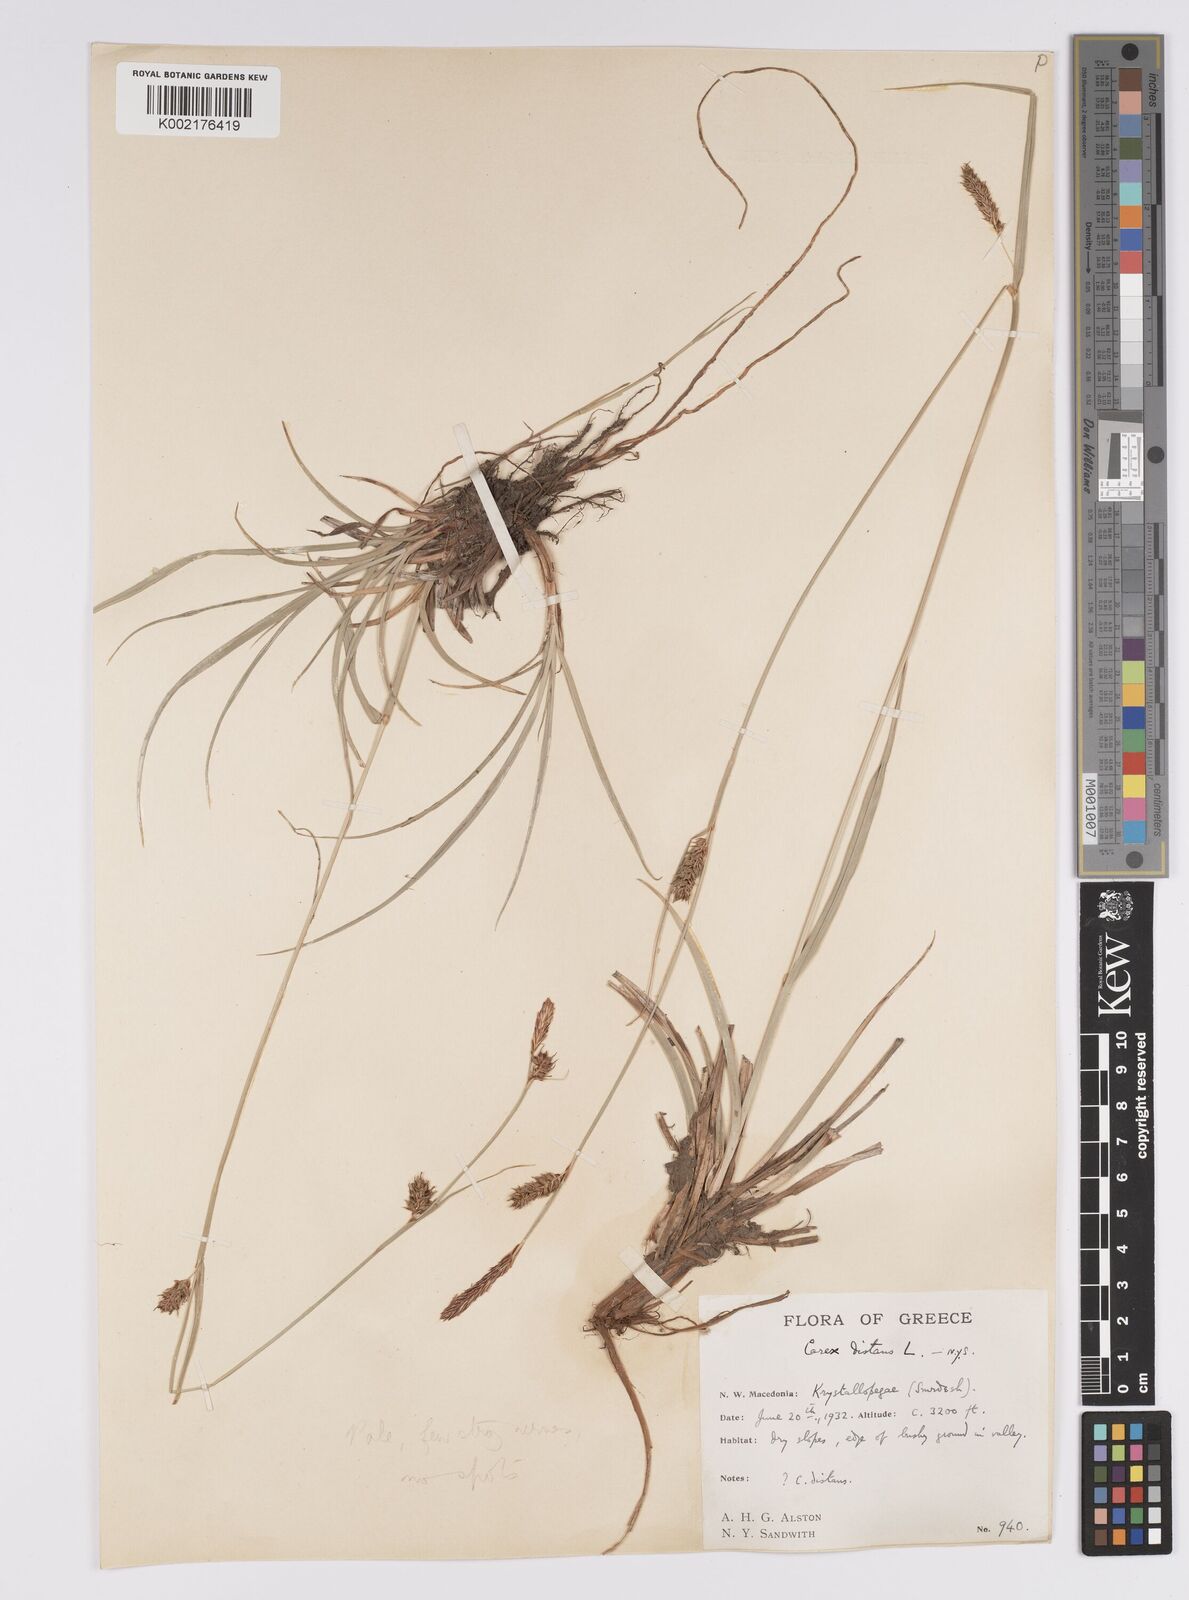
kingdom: Plantae
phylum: Tracheophyta
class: Liliopsida
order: Poales
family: Cyperaceae
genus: Carex
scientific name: Carex distans
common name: Distant sedge
